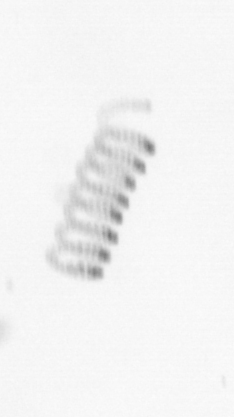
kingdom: Chromista
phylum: Ochrophyta
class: Bacillariophyceae
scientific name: Bacillariophyceae
